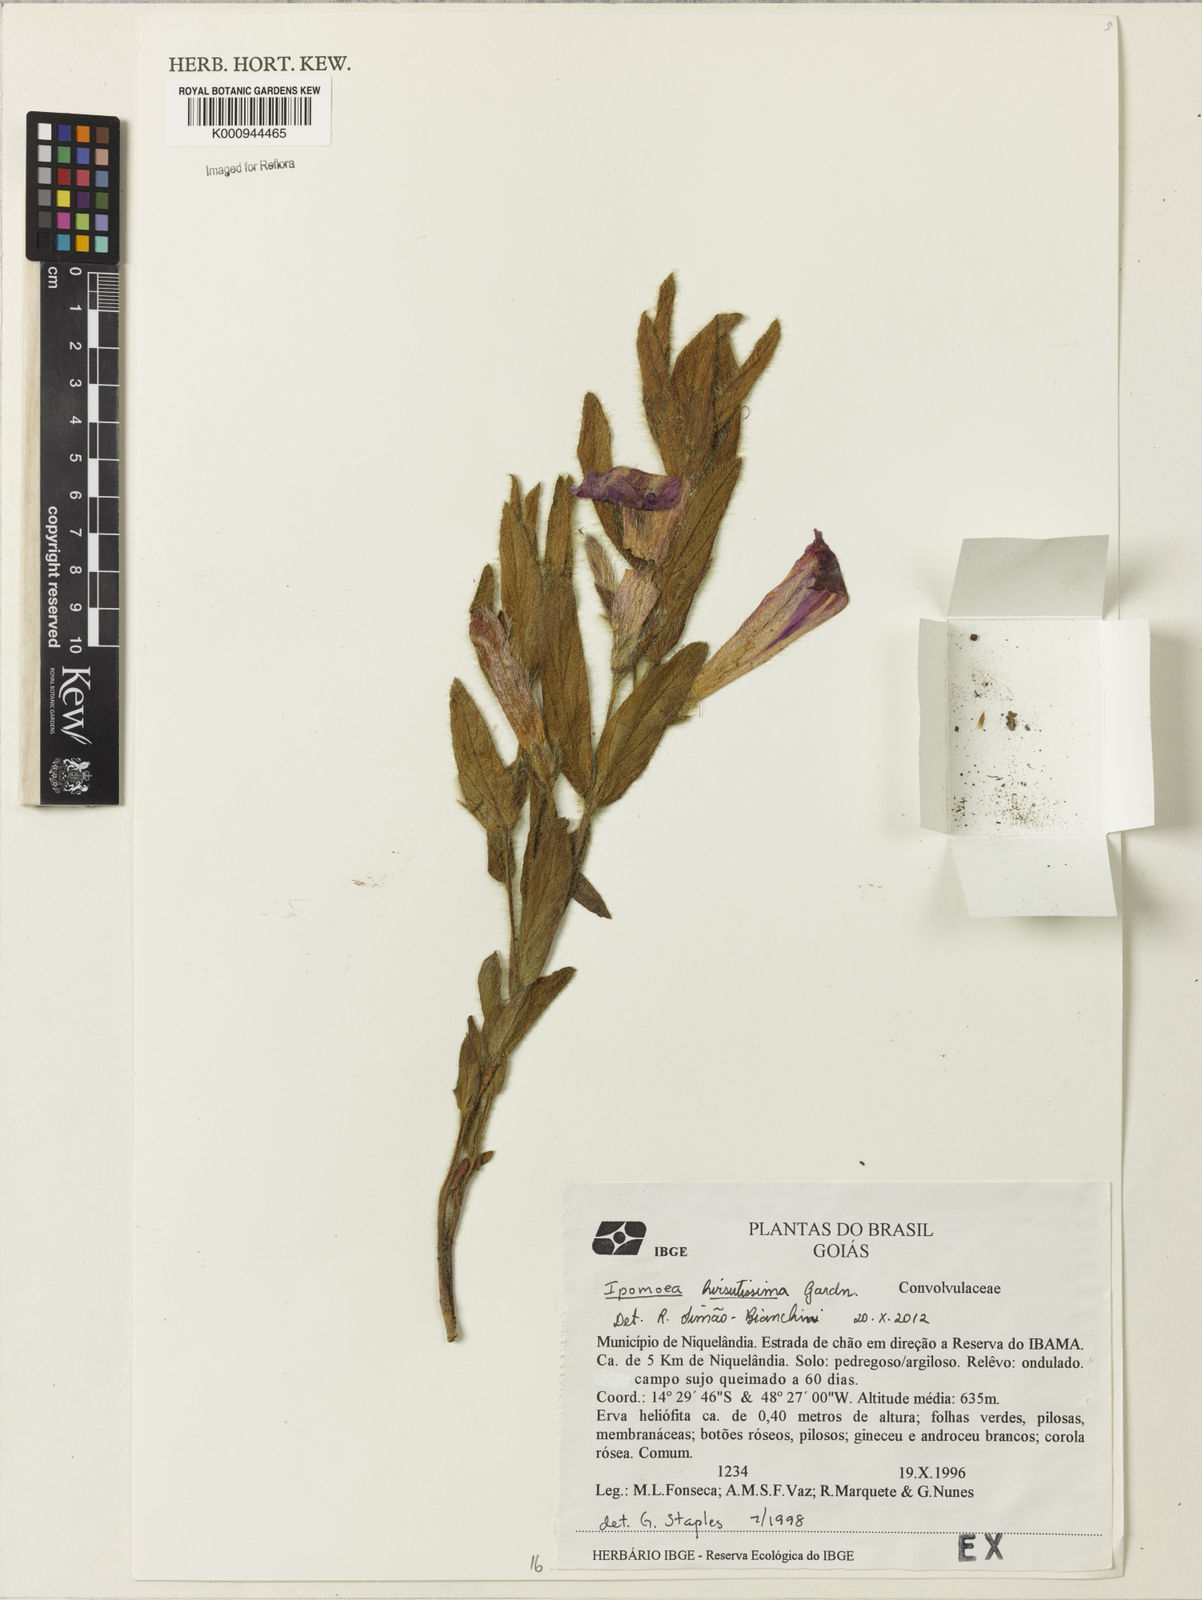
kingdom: Plantae
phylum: Tracheophyta
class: Magnoliopsida
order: Solanales
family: Convolvulaceae
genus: Ipomoea
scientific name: Ipomoea hirsutissima
